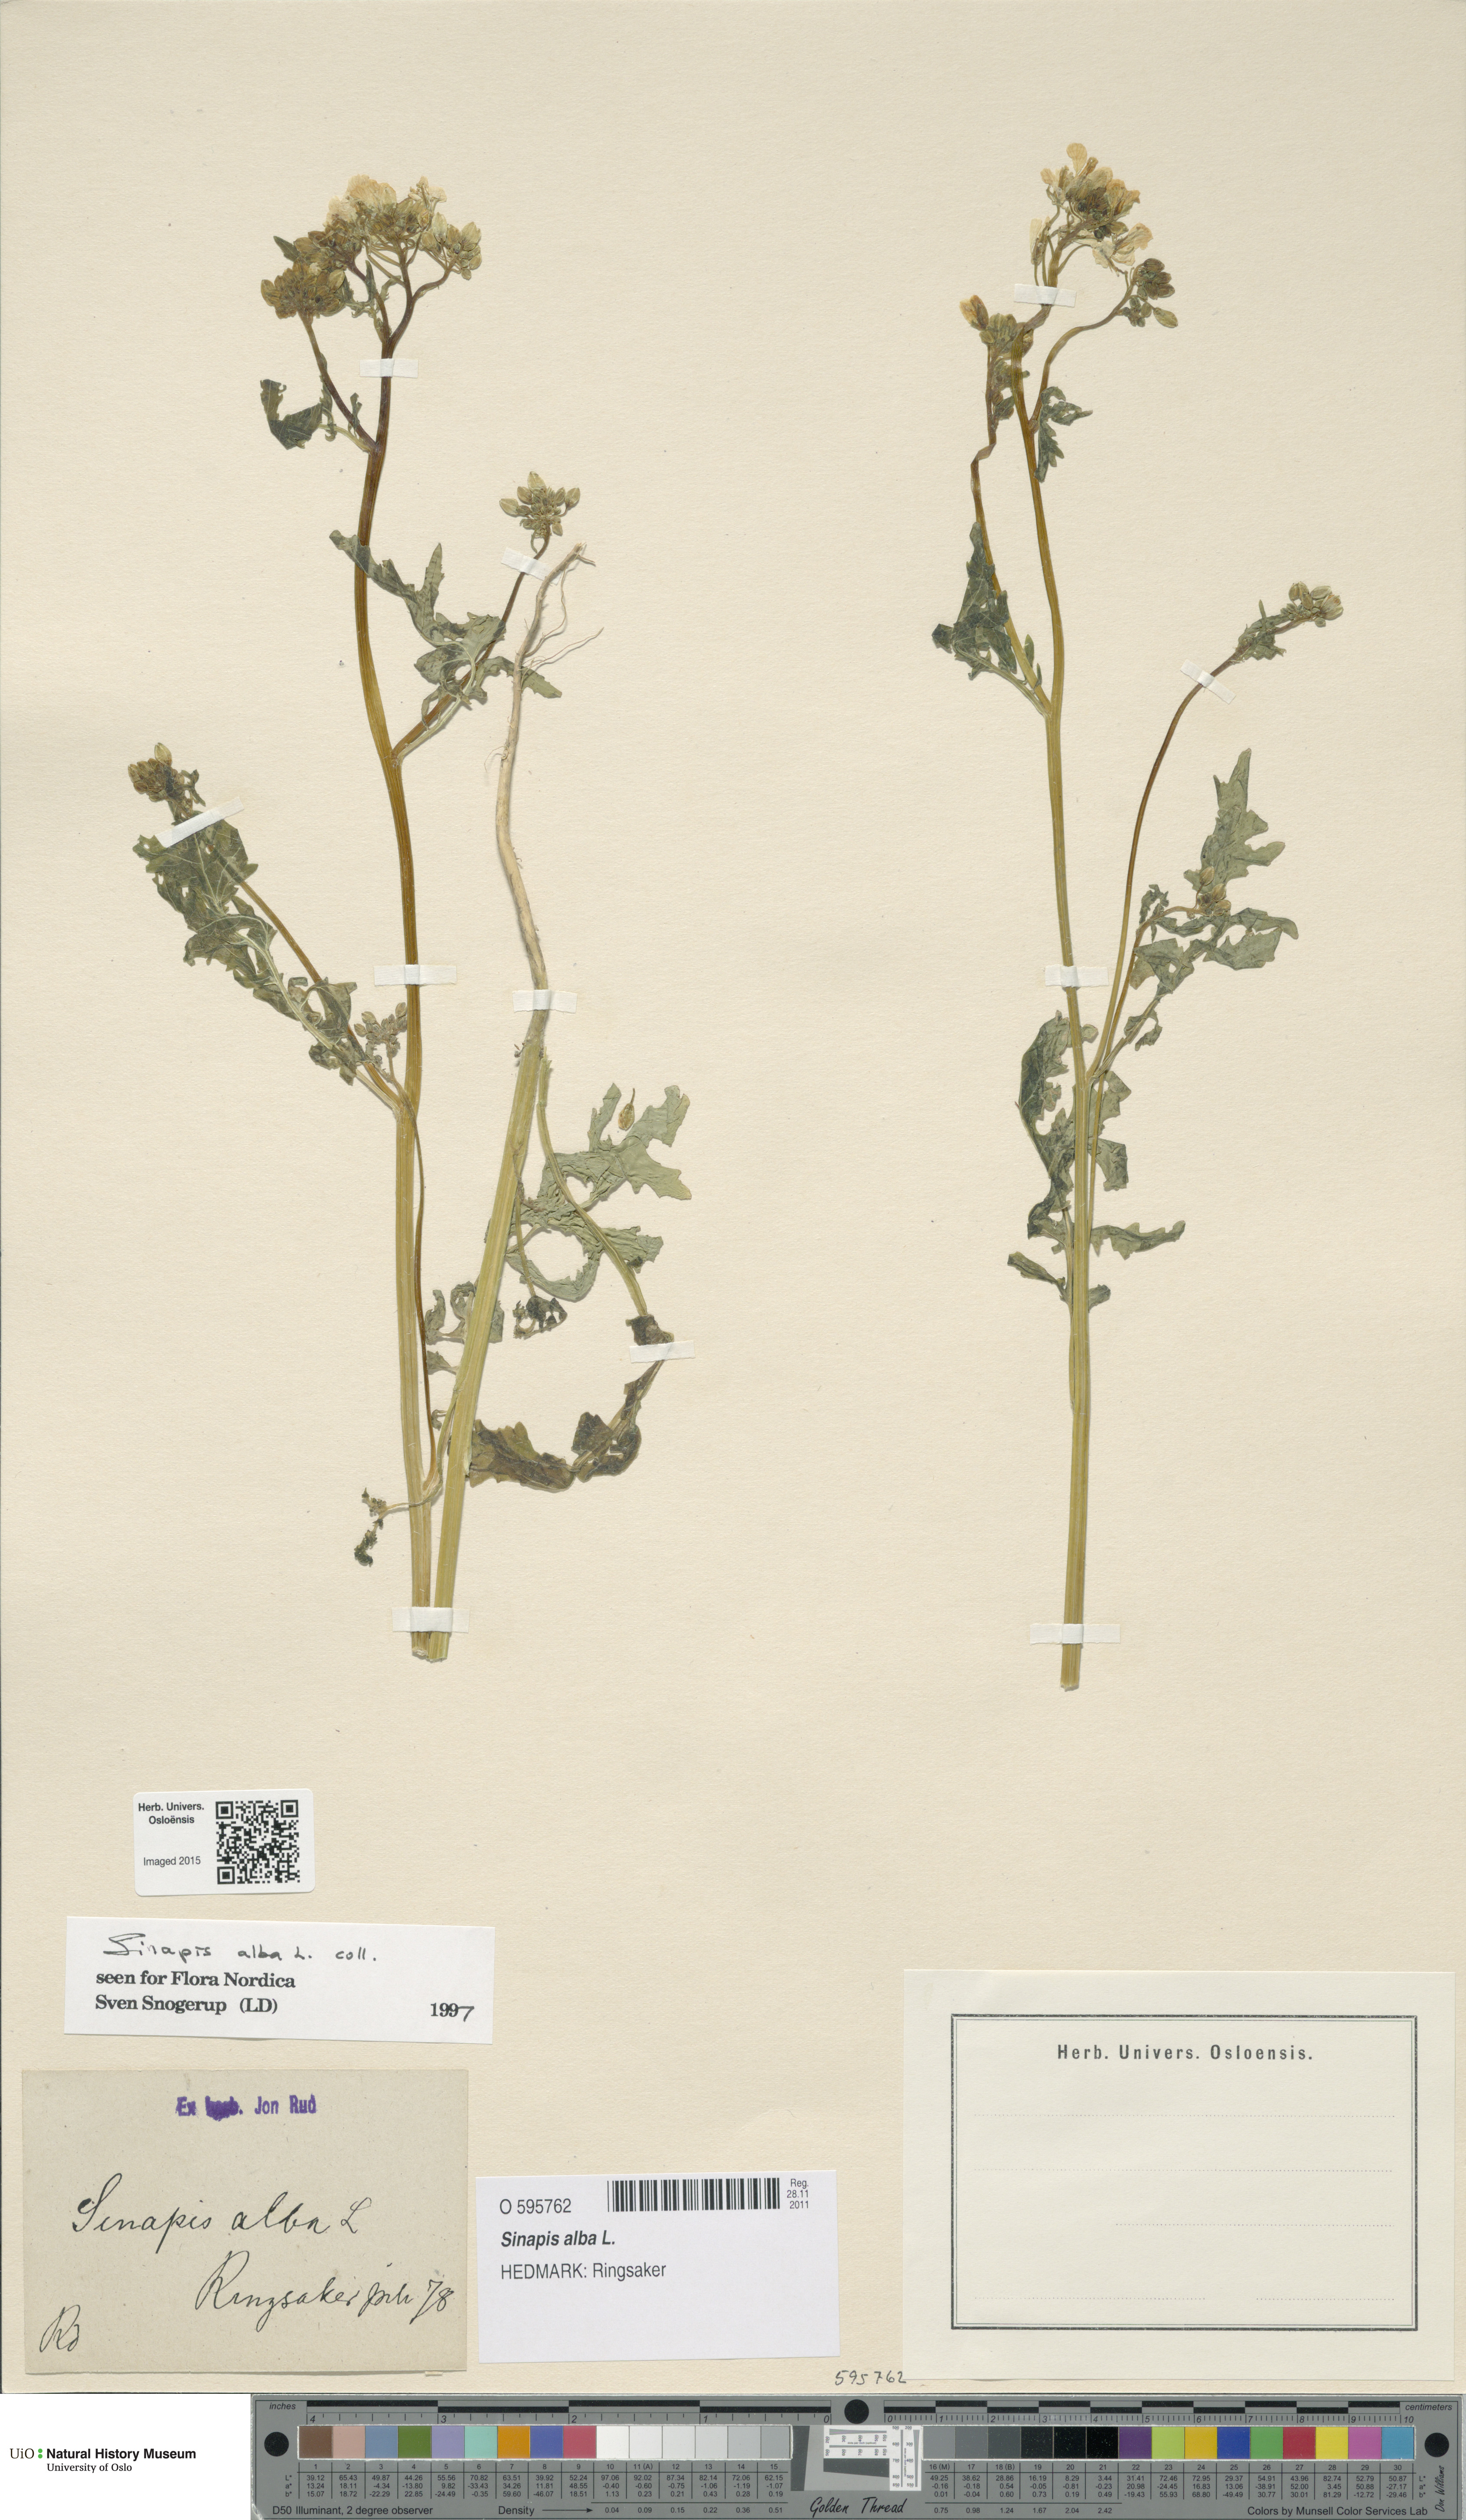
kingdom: Plantae
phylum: Tracheophyta
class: Magnoliopsida
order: Brassicales
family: Brassicaceae
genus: Sinapis
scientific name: Sinapis alba
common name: White mustard
